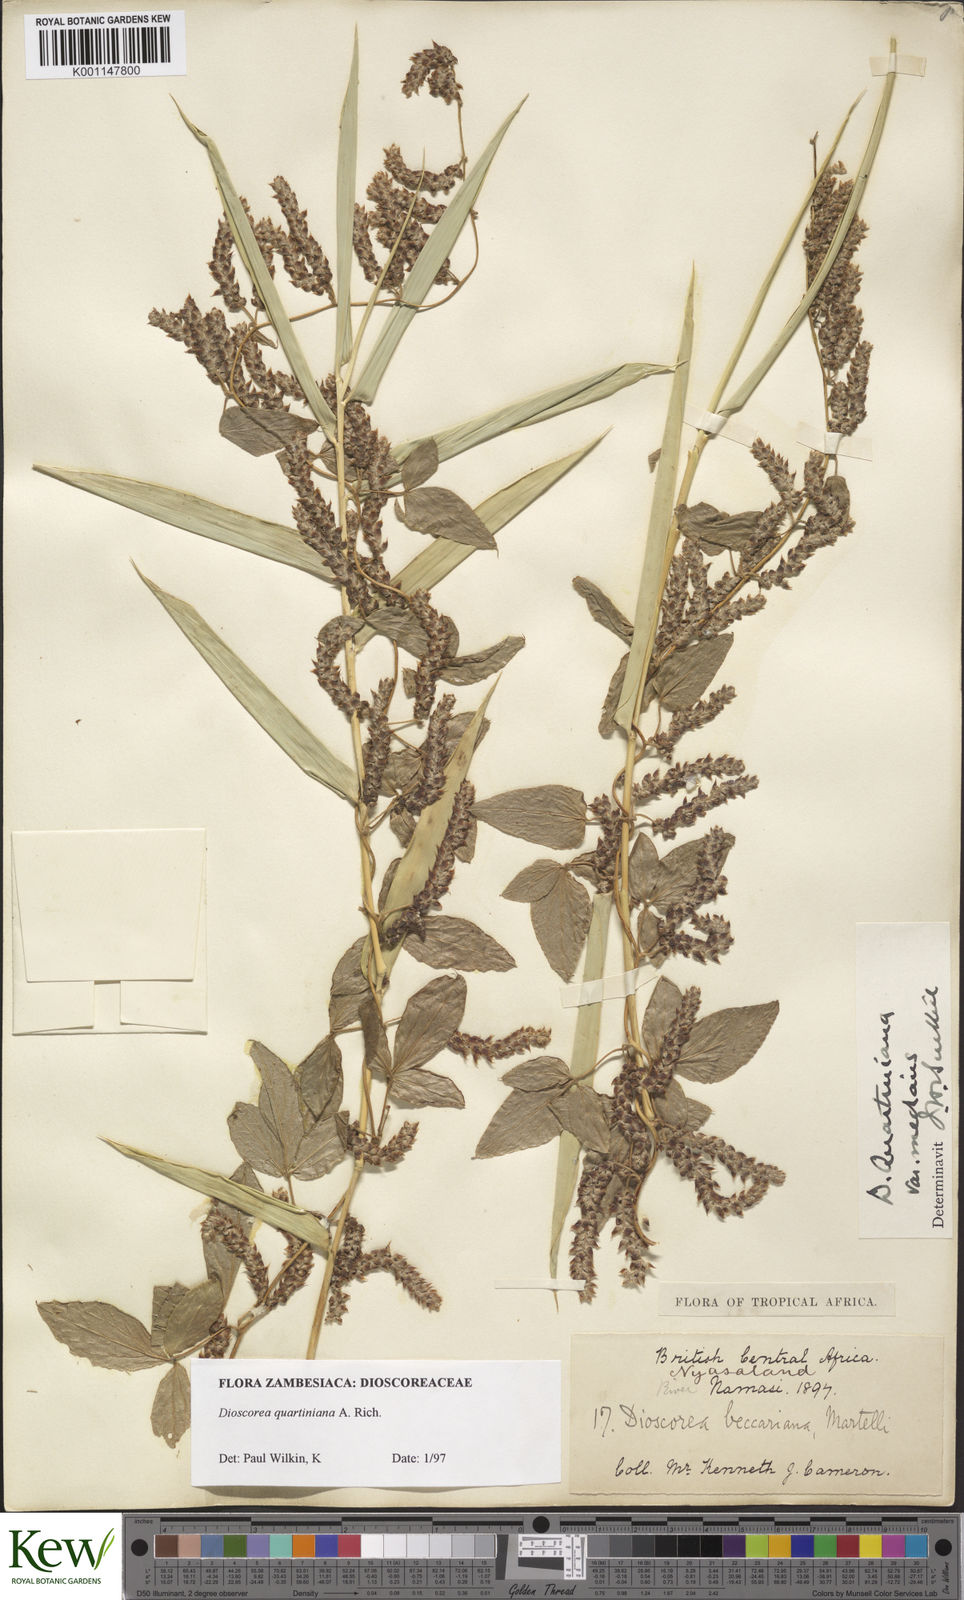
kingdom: Plantae
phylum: Tracheophyta
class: Liliopsida
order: Dioscoreales
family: Dioscoreaceae
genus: Dioscorea
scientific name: Dioscorea quartiniana
